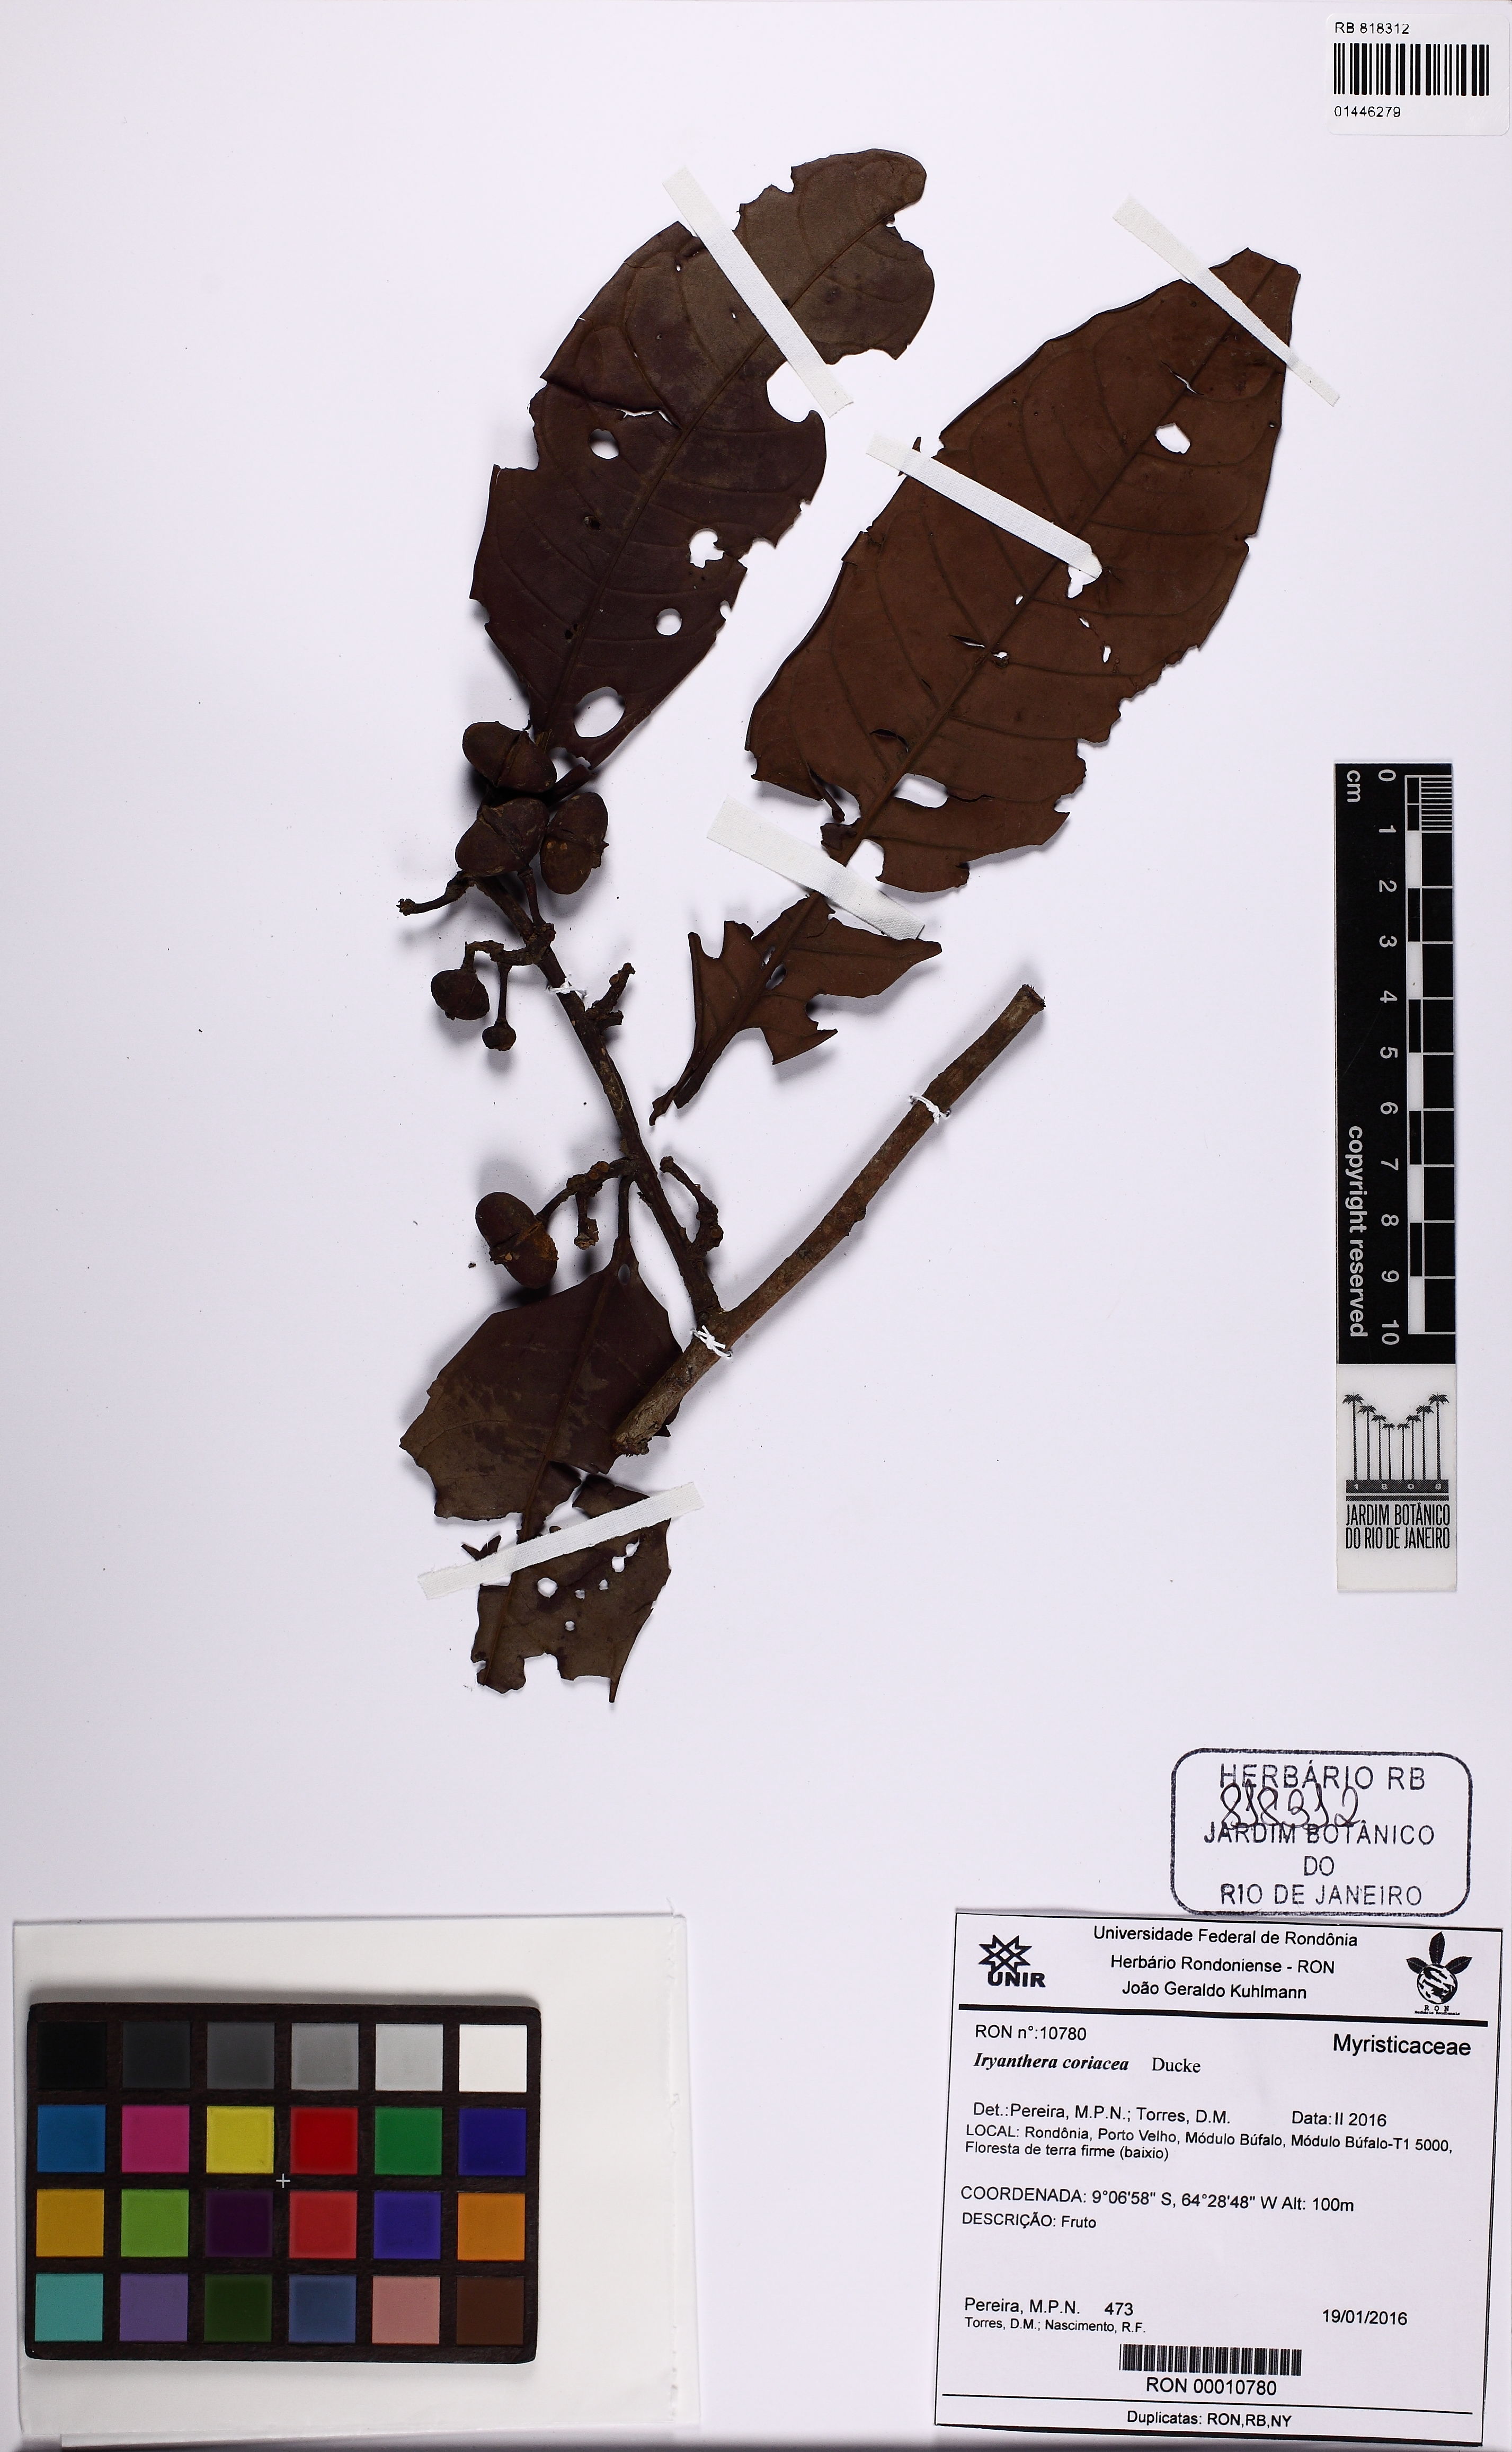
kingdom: Plantae
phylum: Tracheophyta
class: Magnoliopsida
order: Magnoliales
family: Myristicaceae
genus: Iryanthera
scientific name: Iryanthera coriacea
